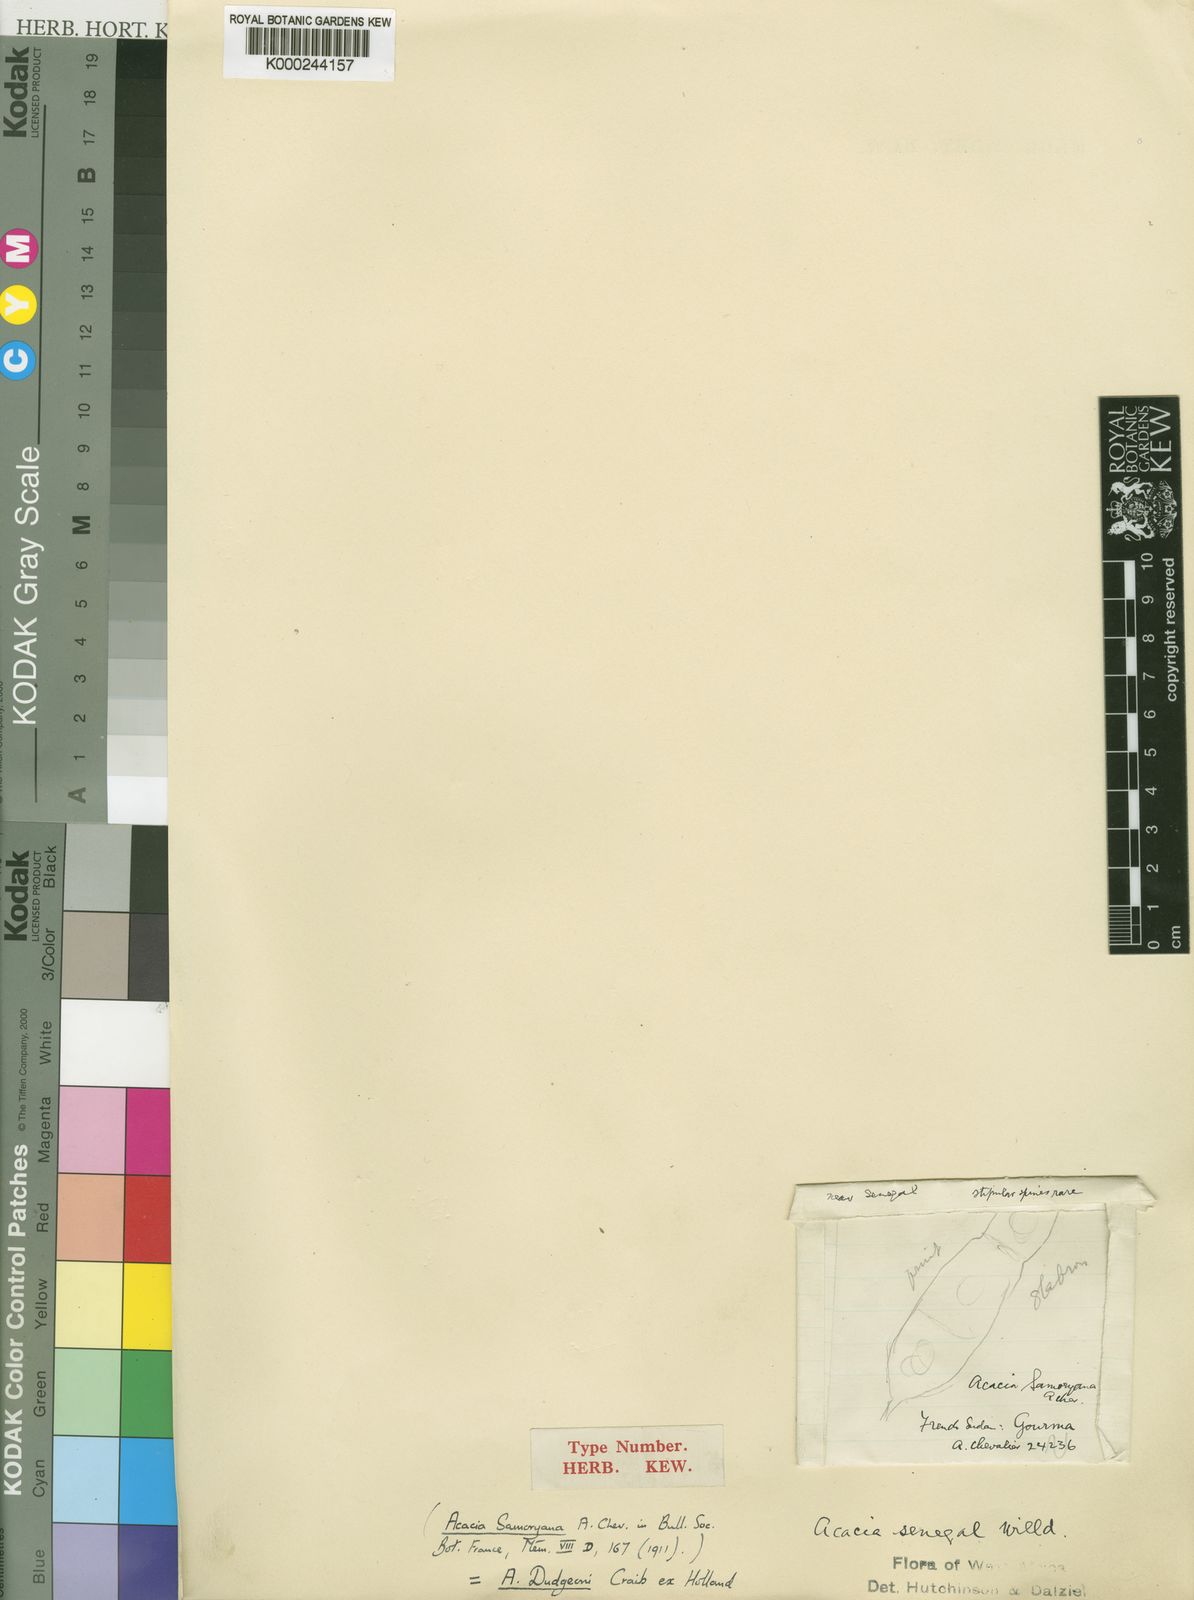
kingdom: Plantae
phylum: Tracheophyta
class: Magnoliopsida
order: Fabales
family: Fabaceae
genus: Acacia
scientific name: Acacia
